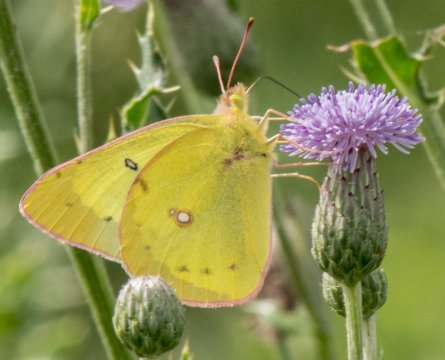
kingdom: Animalia
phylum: Arthropoda
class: Insecta
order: Lepidoptera
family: Pieridae
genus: Colias
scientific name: Colias philodice
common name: Clouded Sulphur
